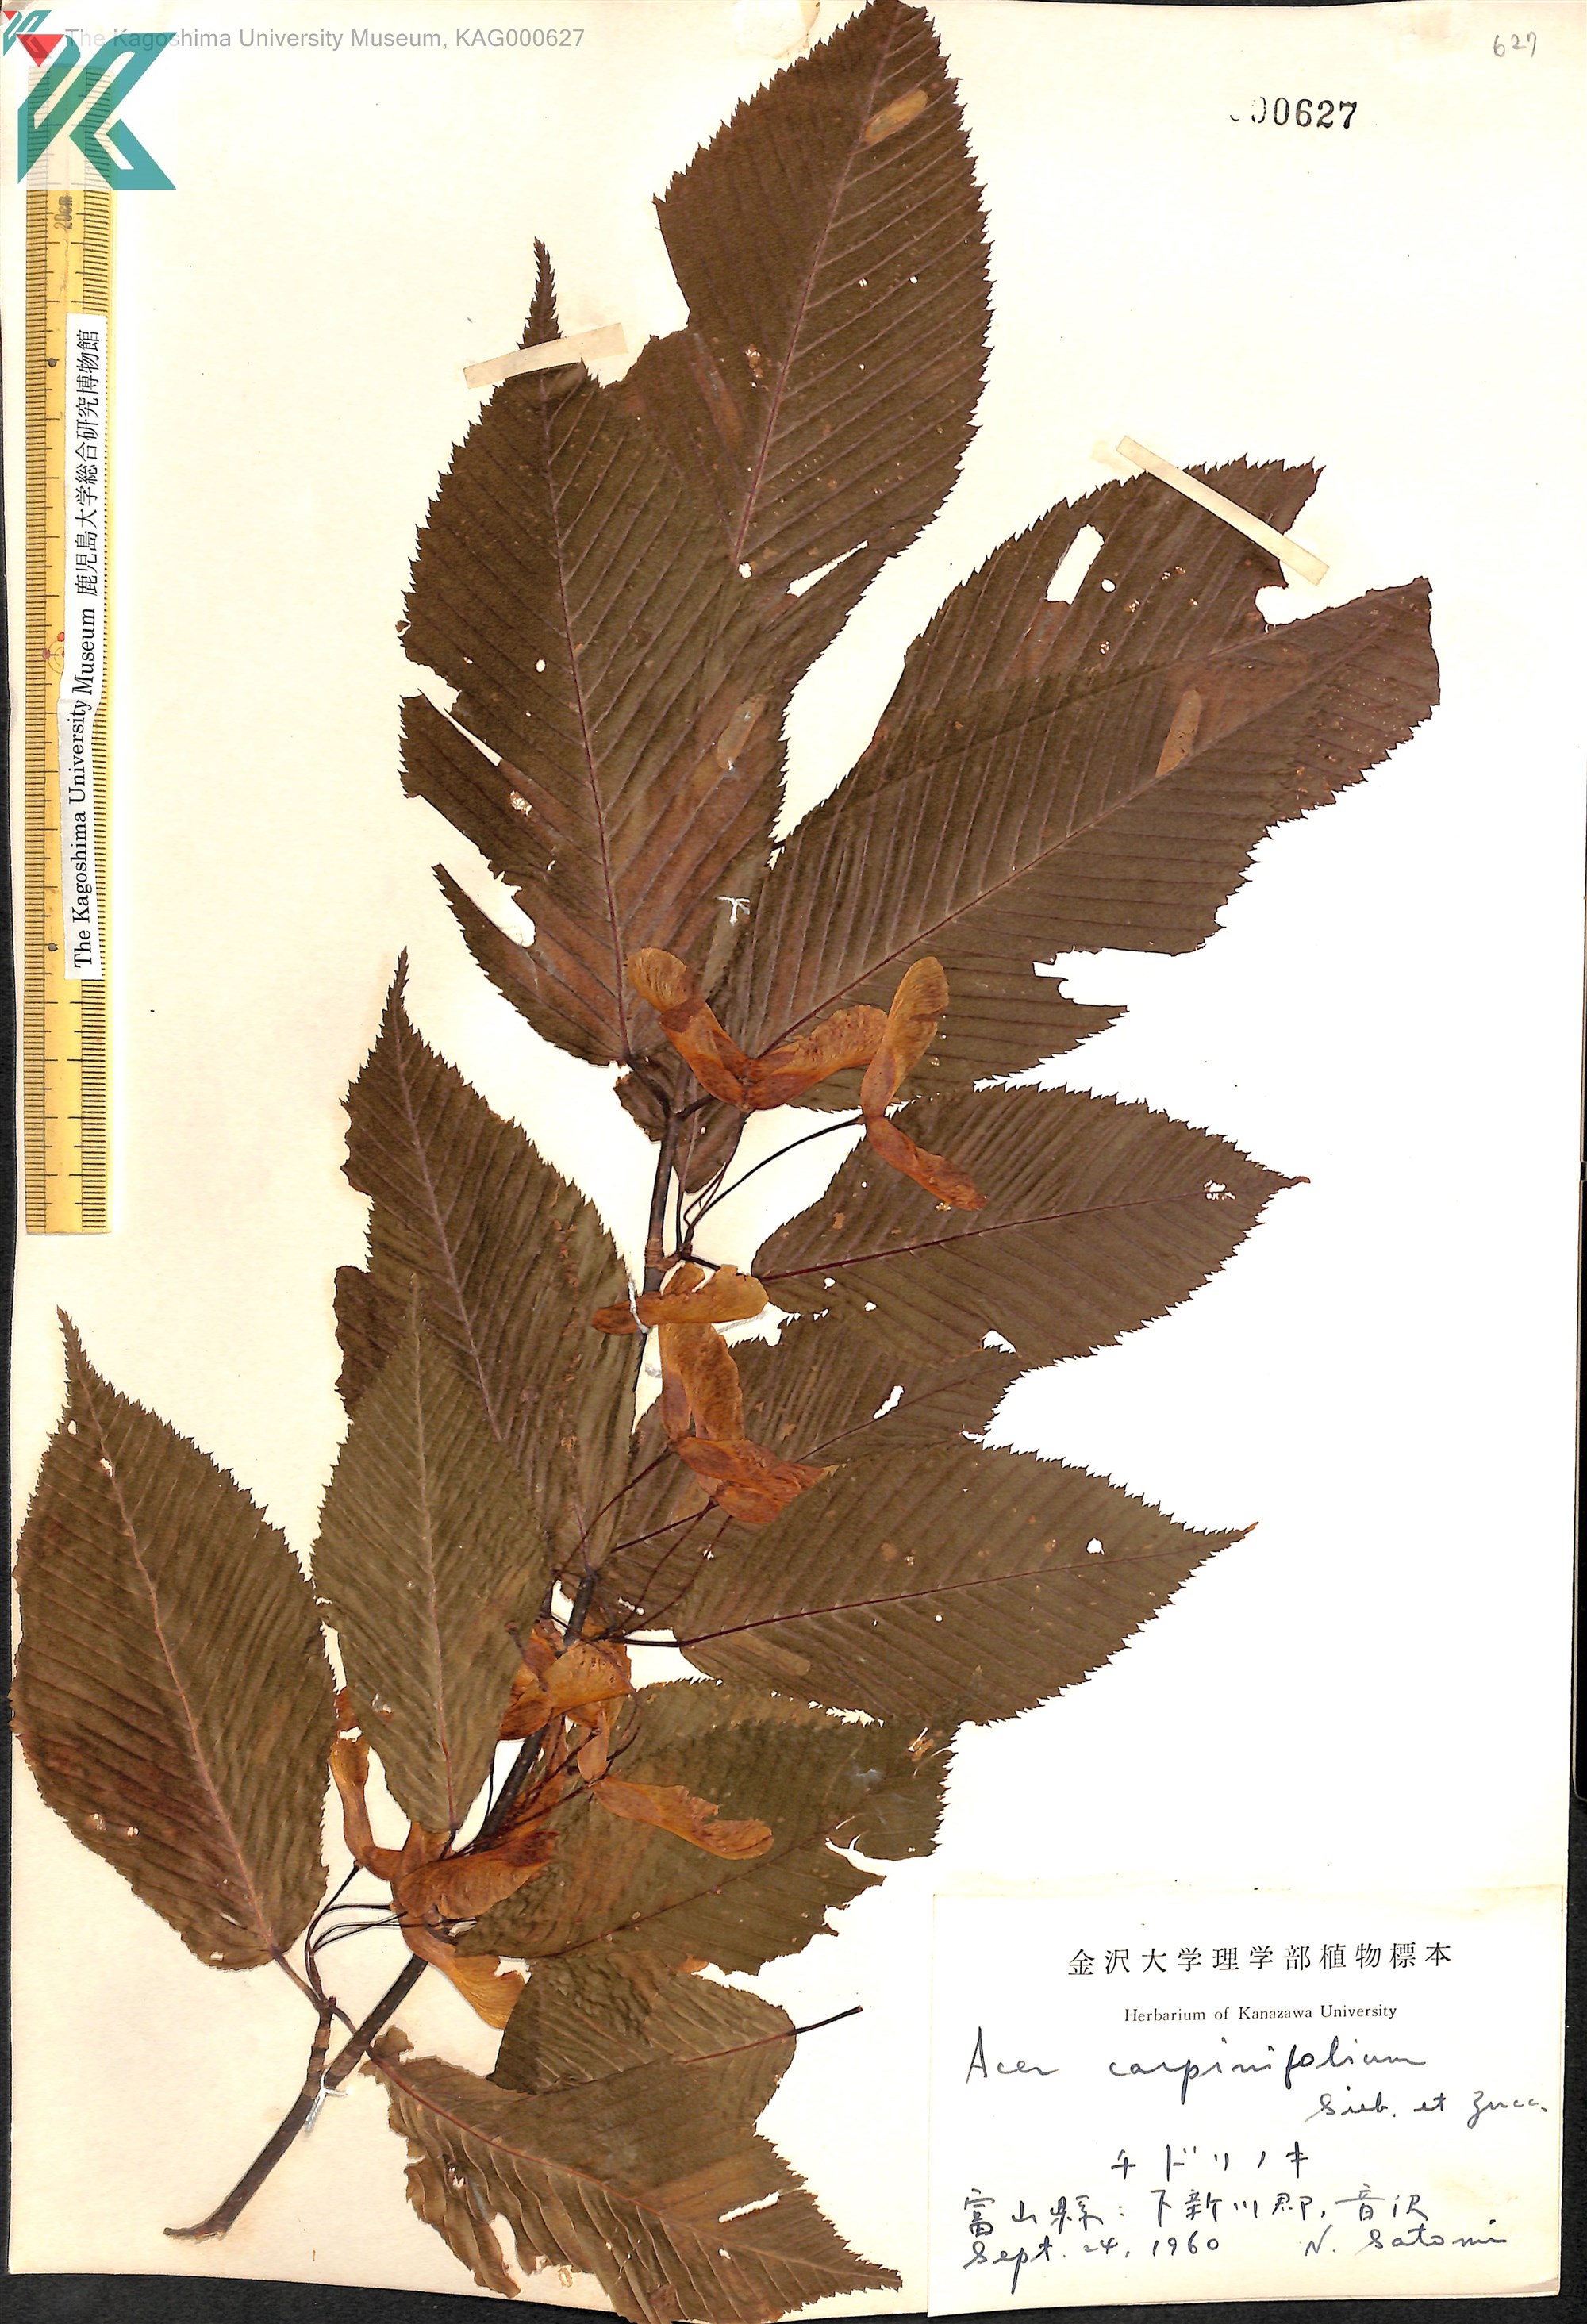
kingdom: Plantae
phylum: Tracheophyta
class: Magnoliopsida
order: Sapindales
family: Sapindaceae
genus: Acer
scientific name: Acer carpinifolium
